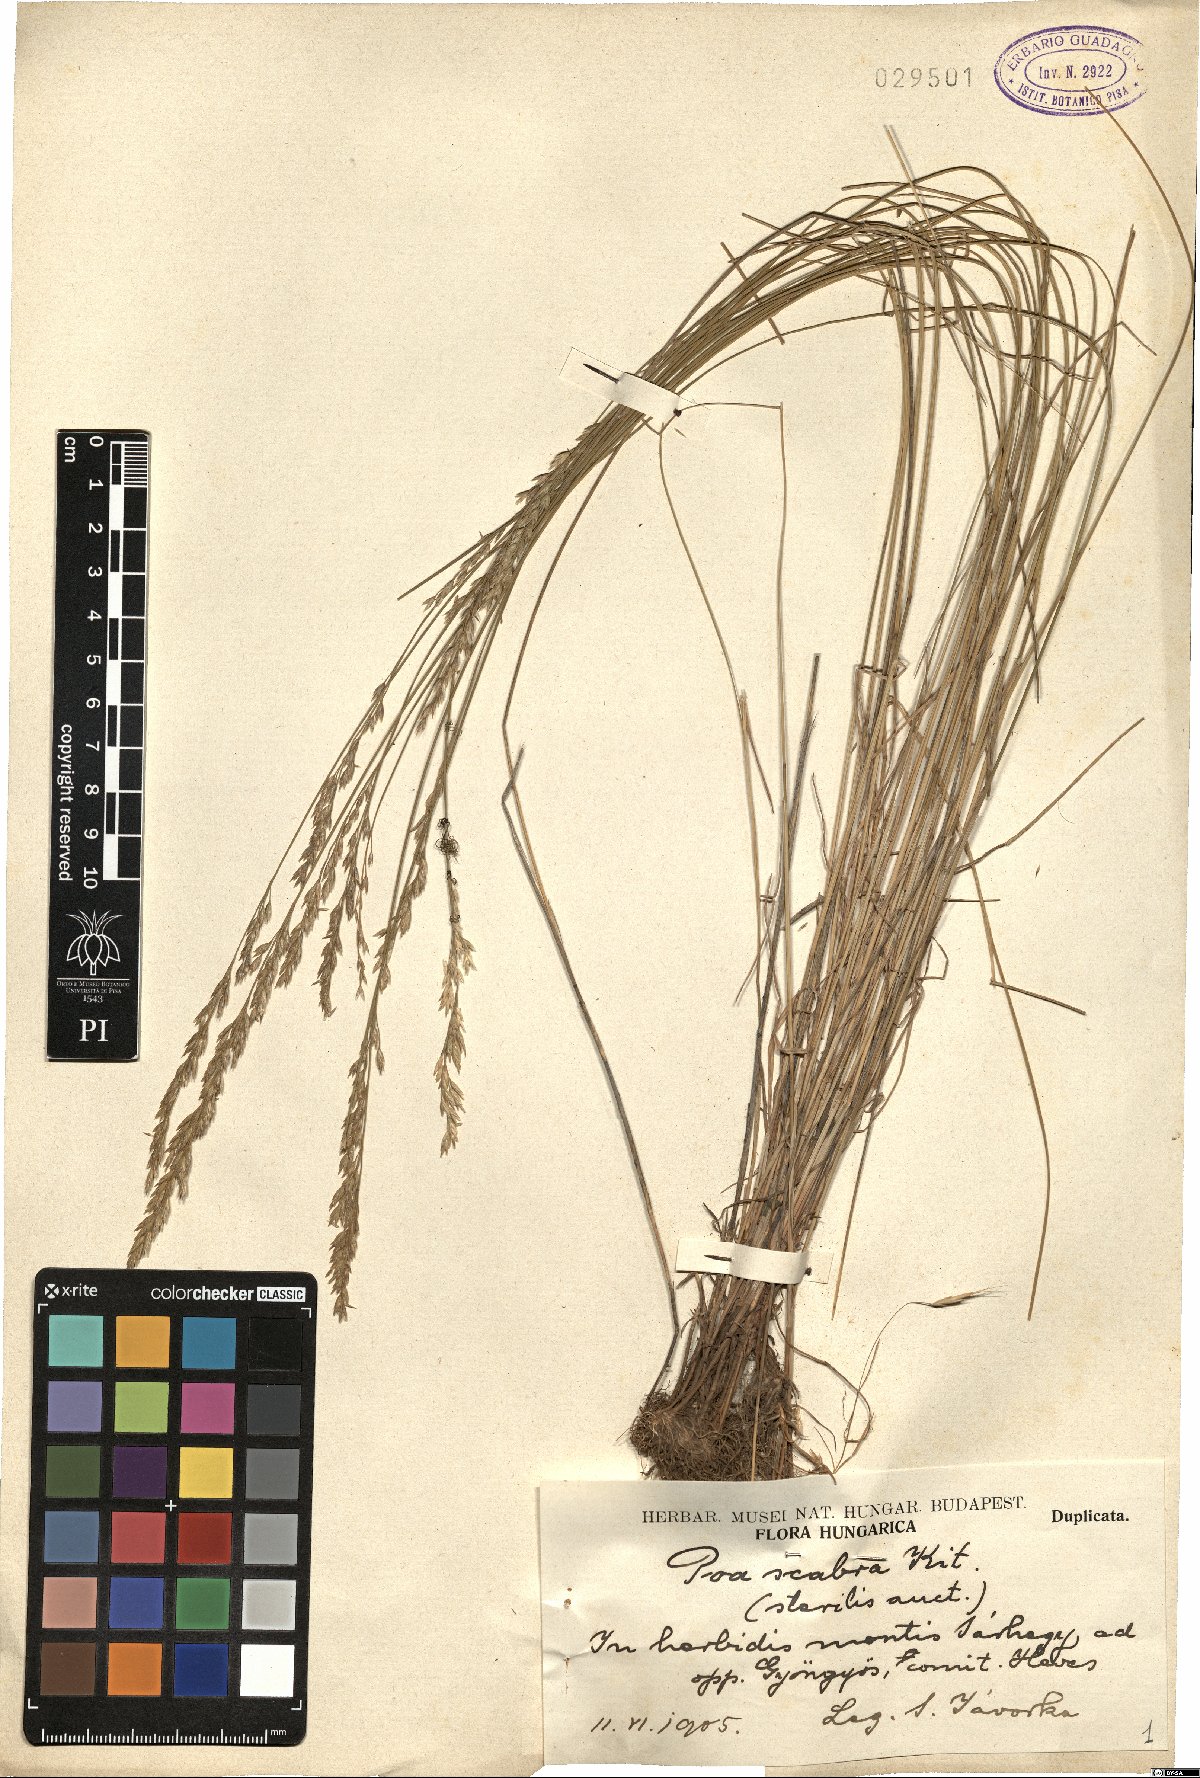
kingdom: Plantae
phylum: Tracheophyta
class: Liliopsida
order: Poales
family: Poaceae
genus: Poa
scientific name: Poa pannonica
